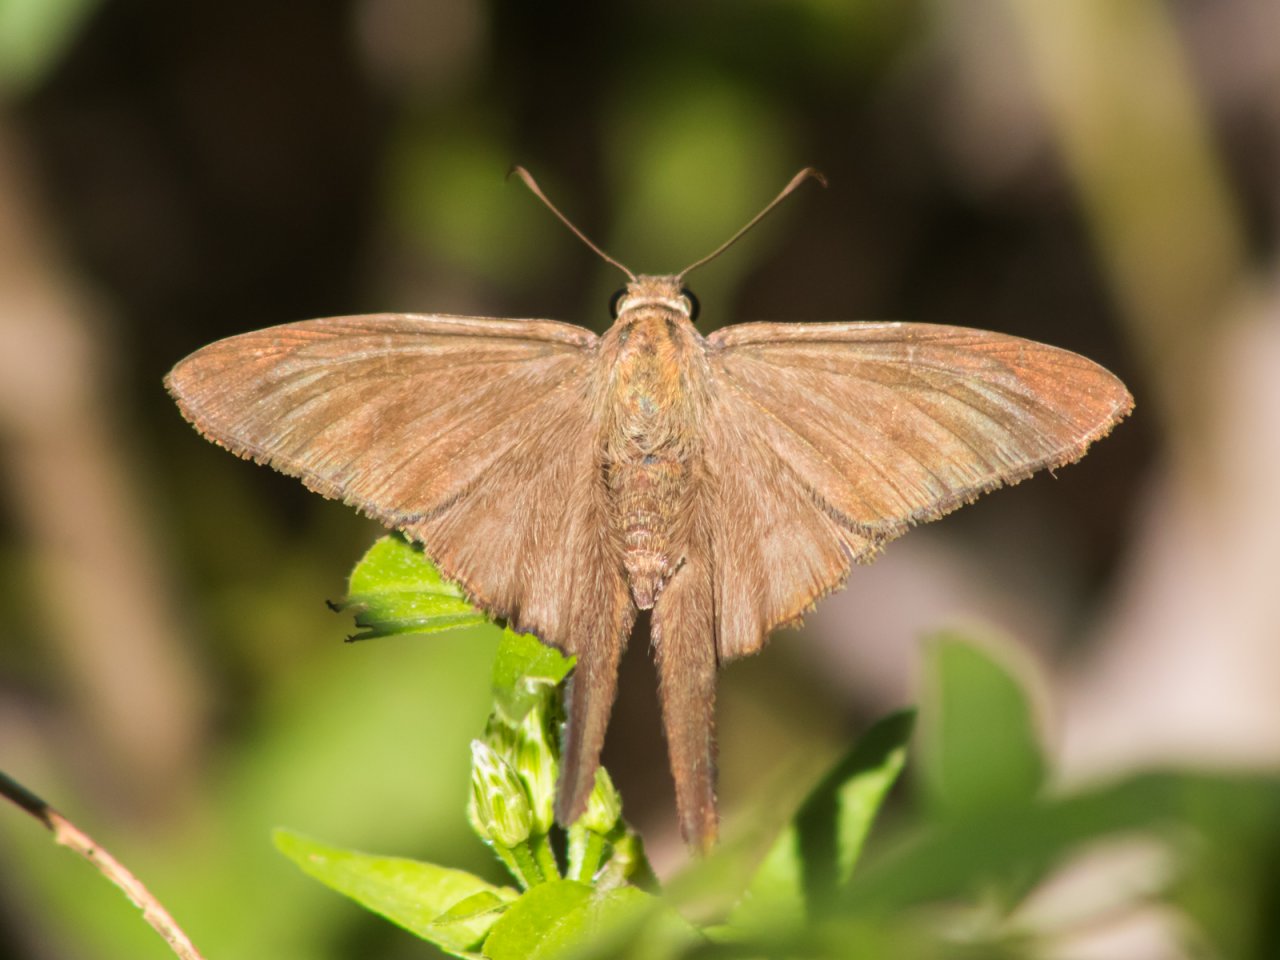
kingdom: Animalia
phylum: Arthropoda
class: Insecta
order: Lepidoptera
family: Hesperiidae
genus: Urbanus
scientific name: Urbanus procne
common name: Brown Longtail
